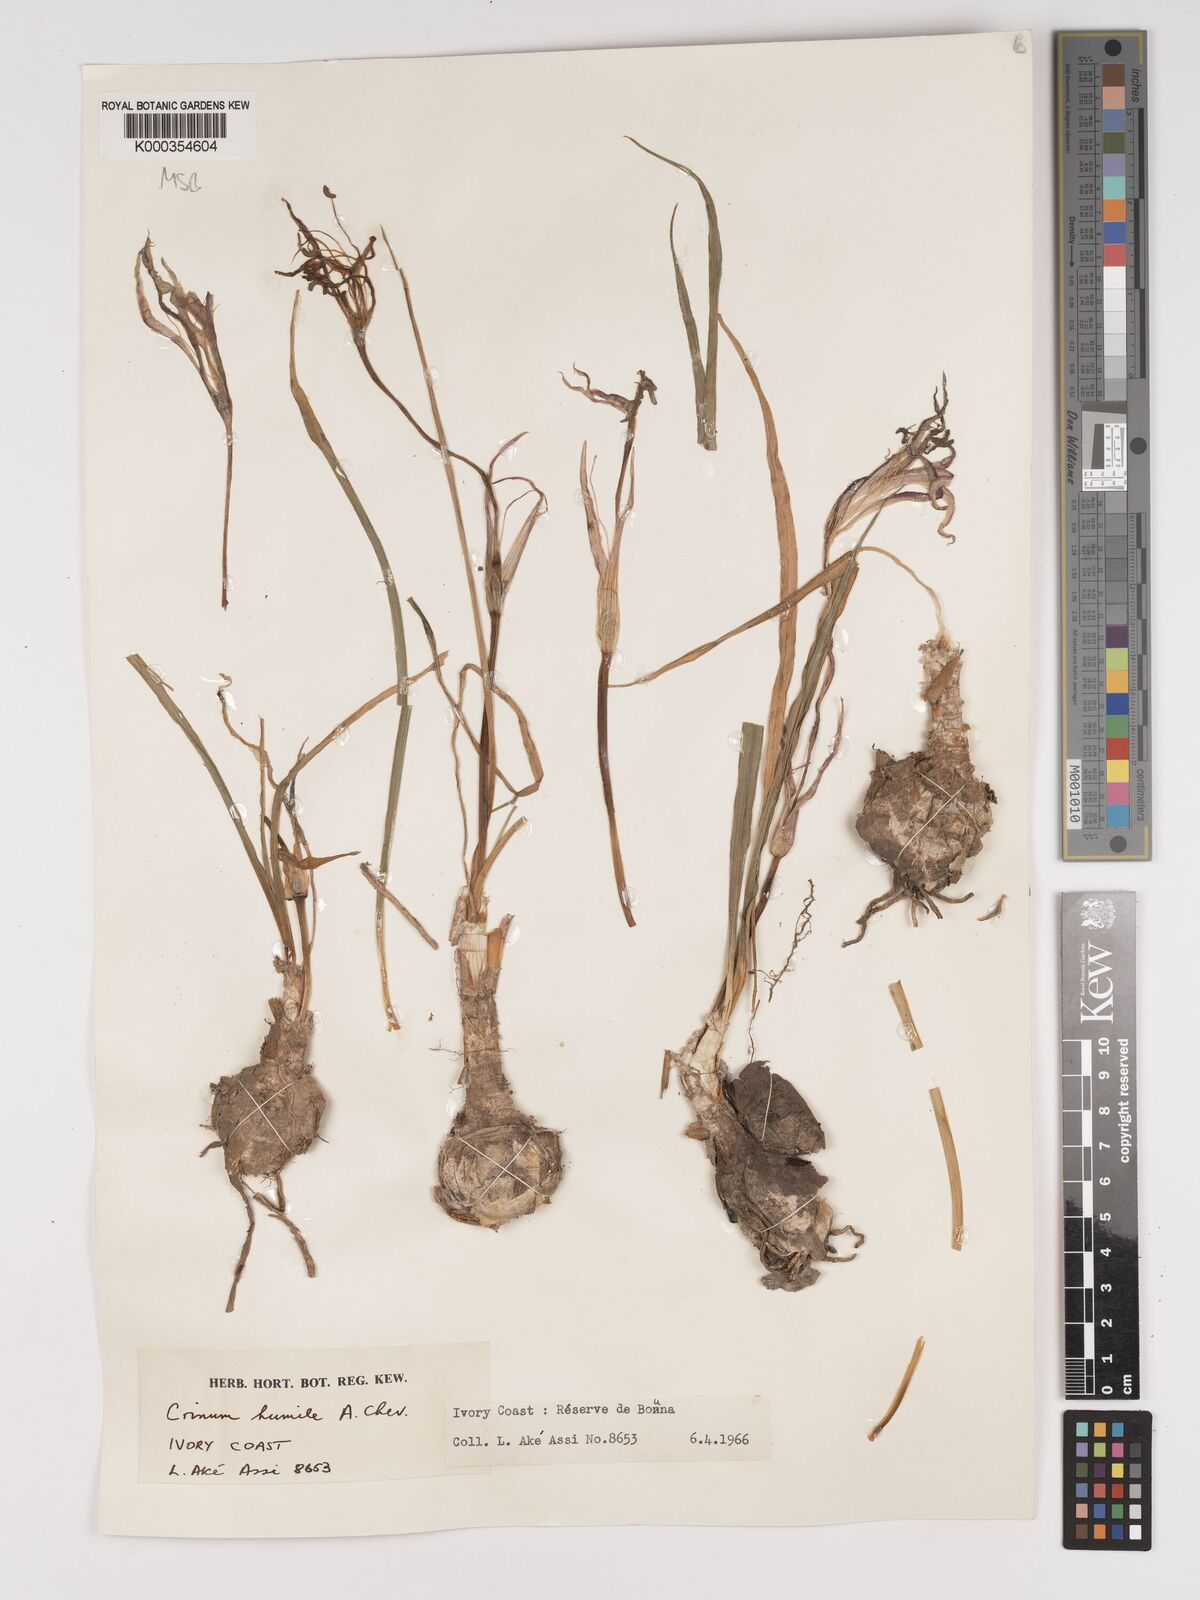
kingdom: Plantae
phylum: Tracheophyta
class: Liliopsida
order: Asparagales
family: Amaryllidaceae
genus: Crinum
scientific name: Crinum nubicum
